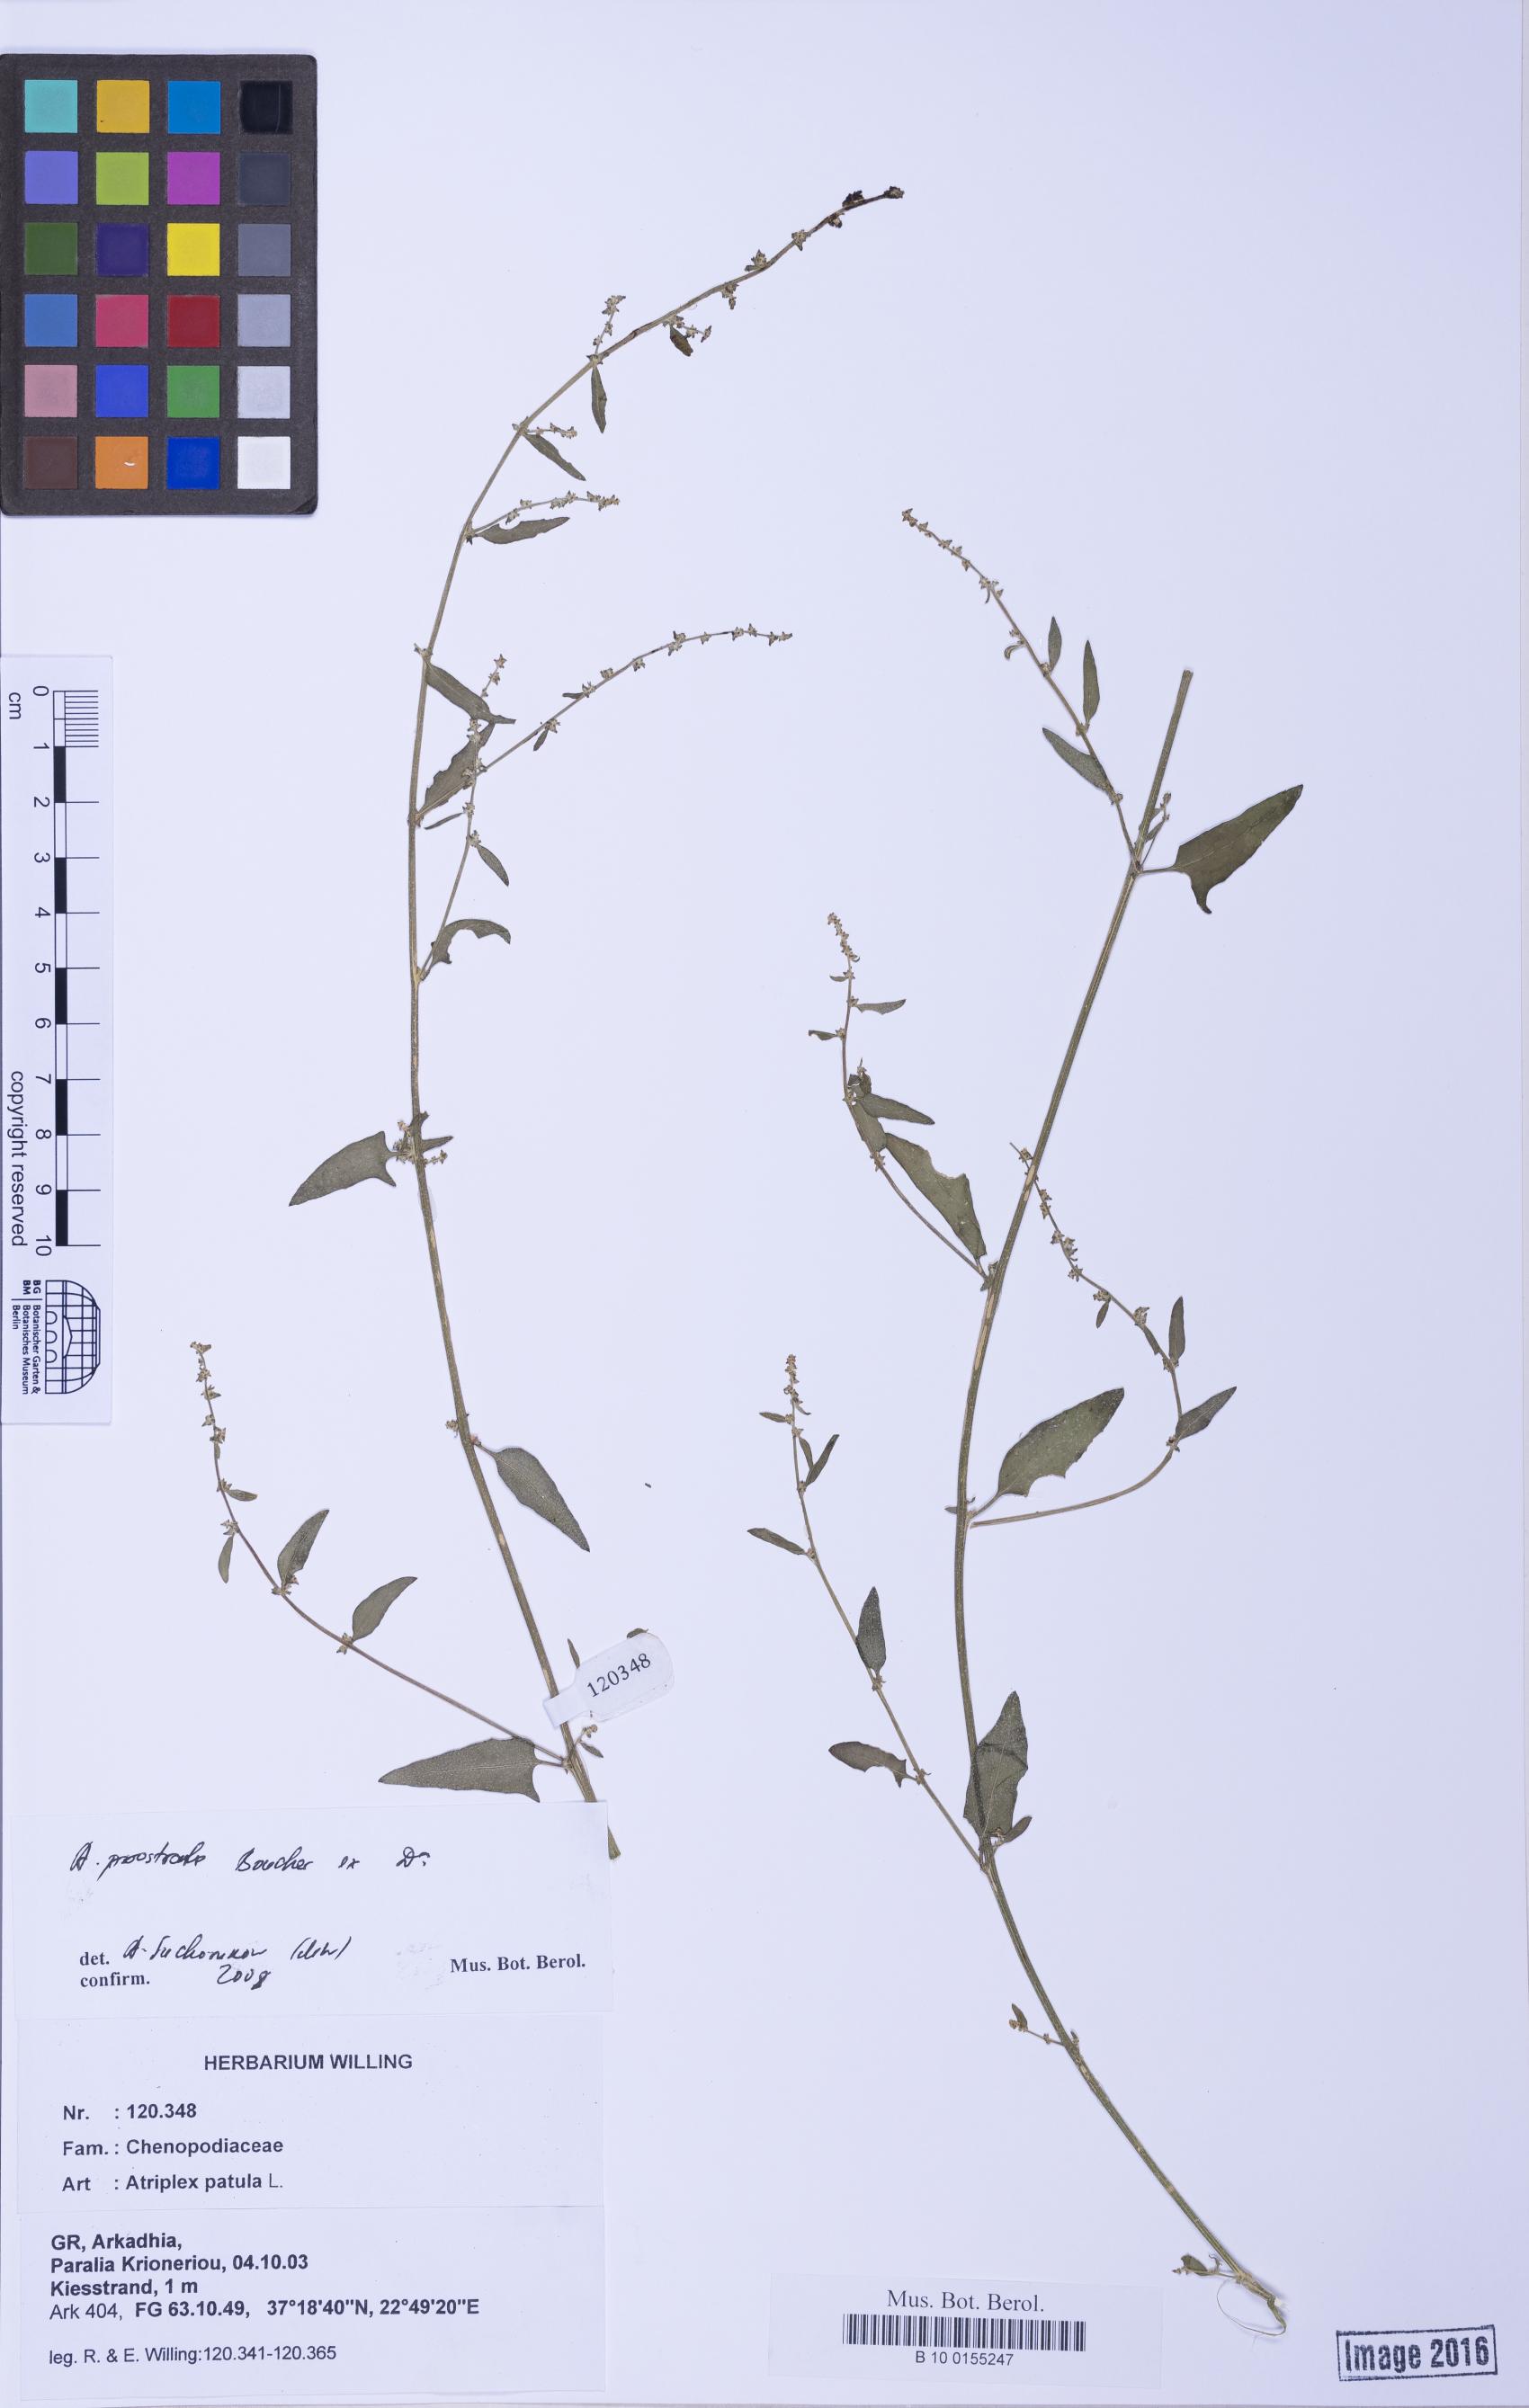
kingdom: Plantae
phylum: Tracheophyta
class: Magnoliopsida
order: Caryophyllales
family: Amaranthaceae
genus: Atriplex
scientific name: Atriplex prostrata
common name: Spear-leaved orache
